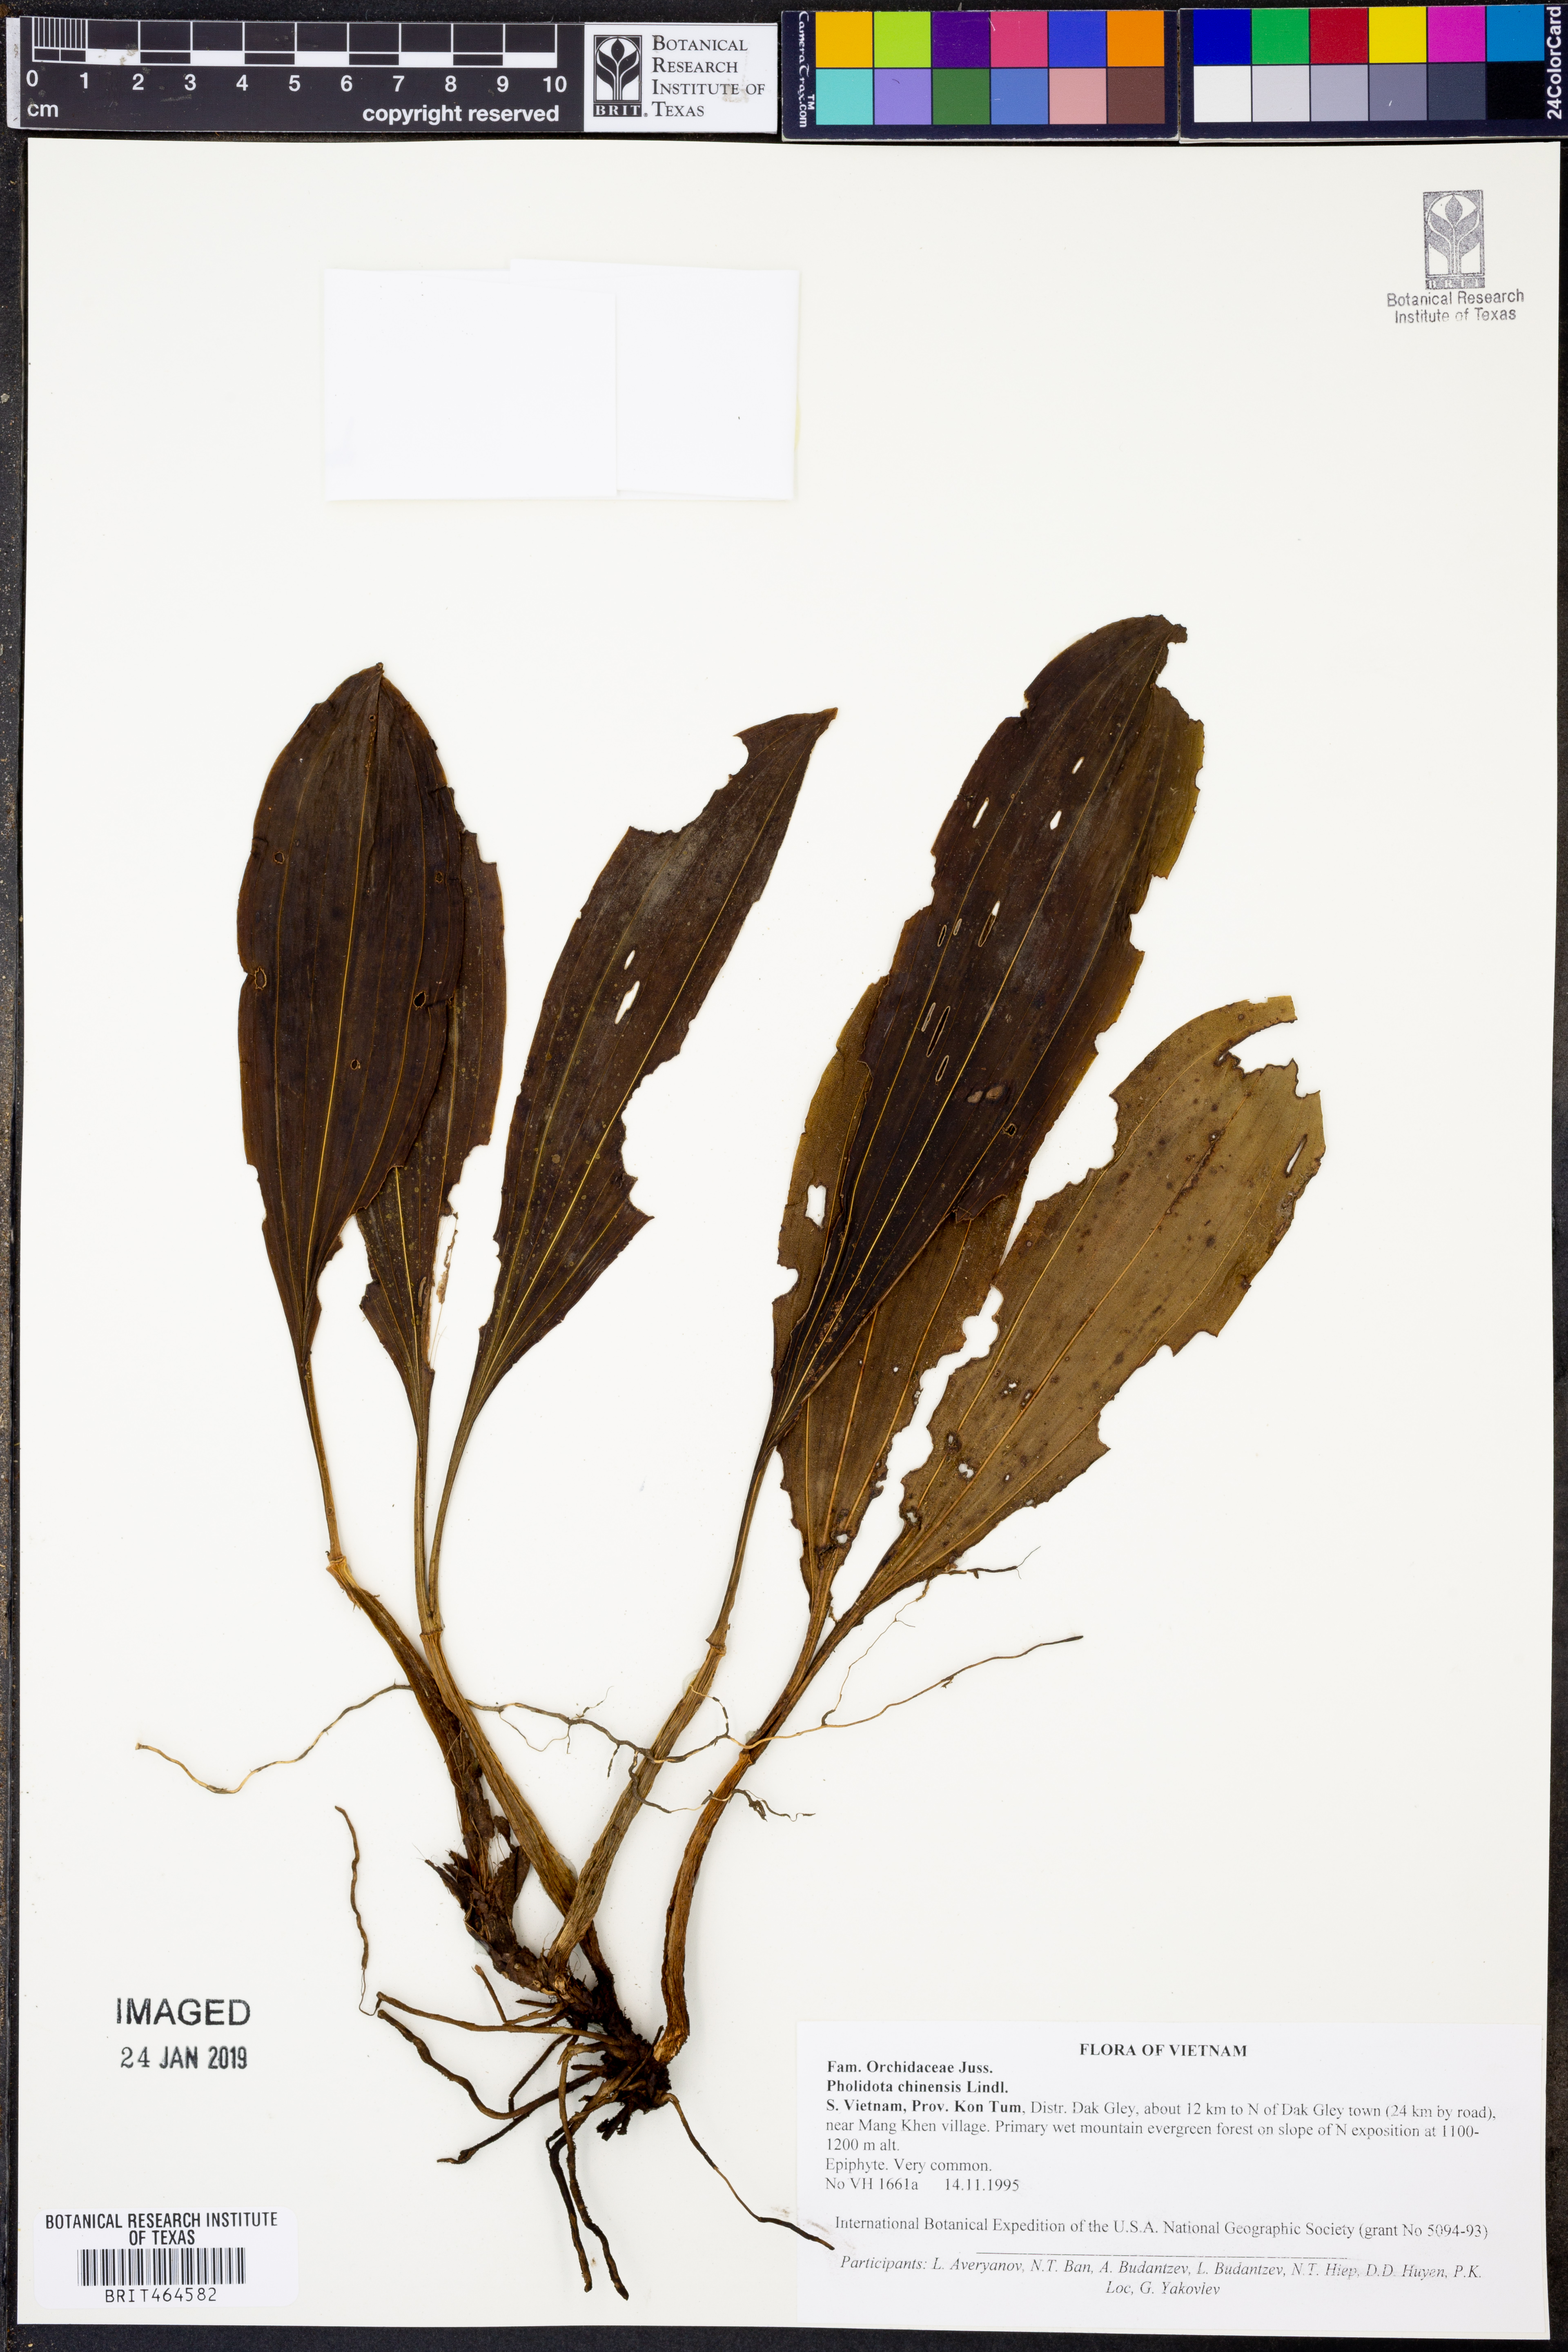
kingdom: Plantae
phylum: Tracheophyta
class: Liliopsida
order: Asparagales
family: Orchidaceae
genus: Coelogyne
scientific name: Coelogyne chinensis
